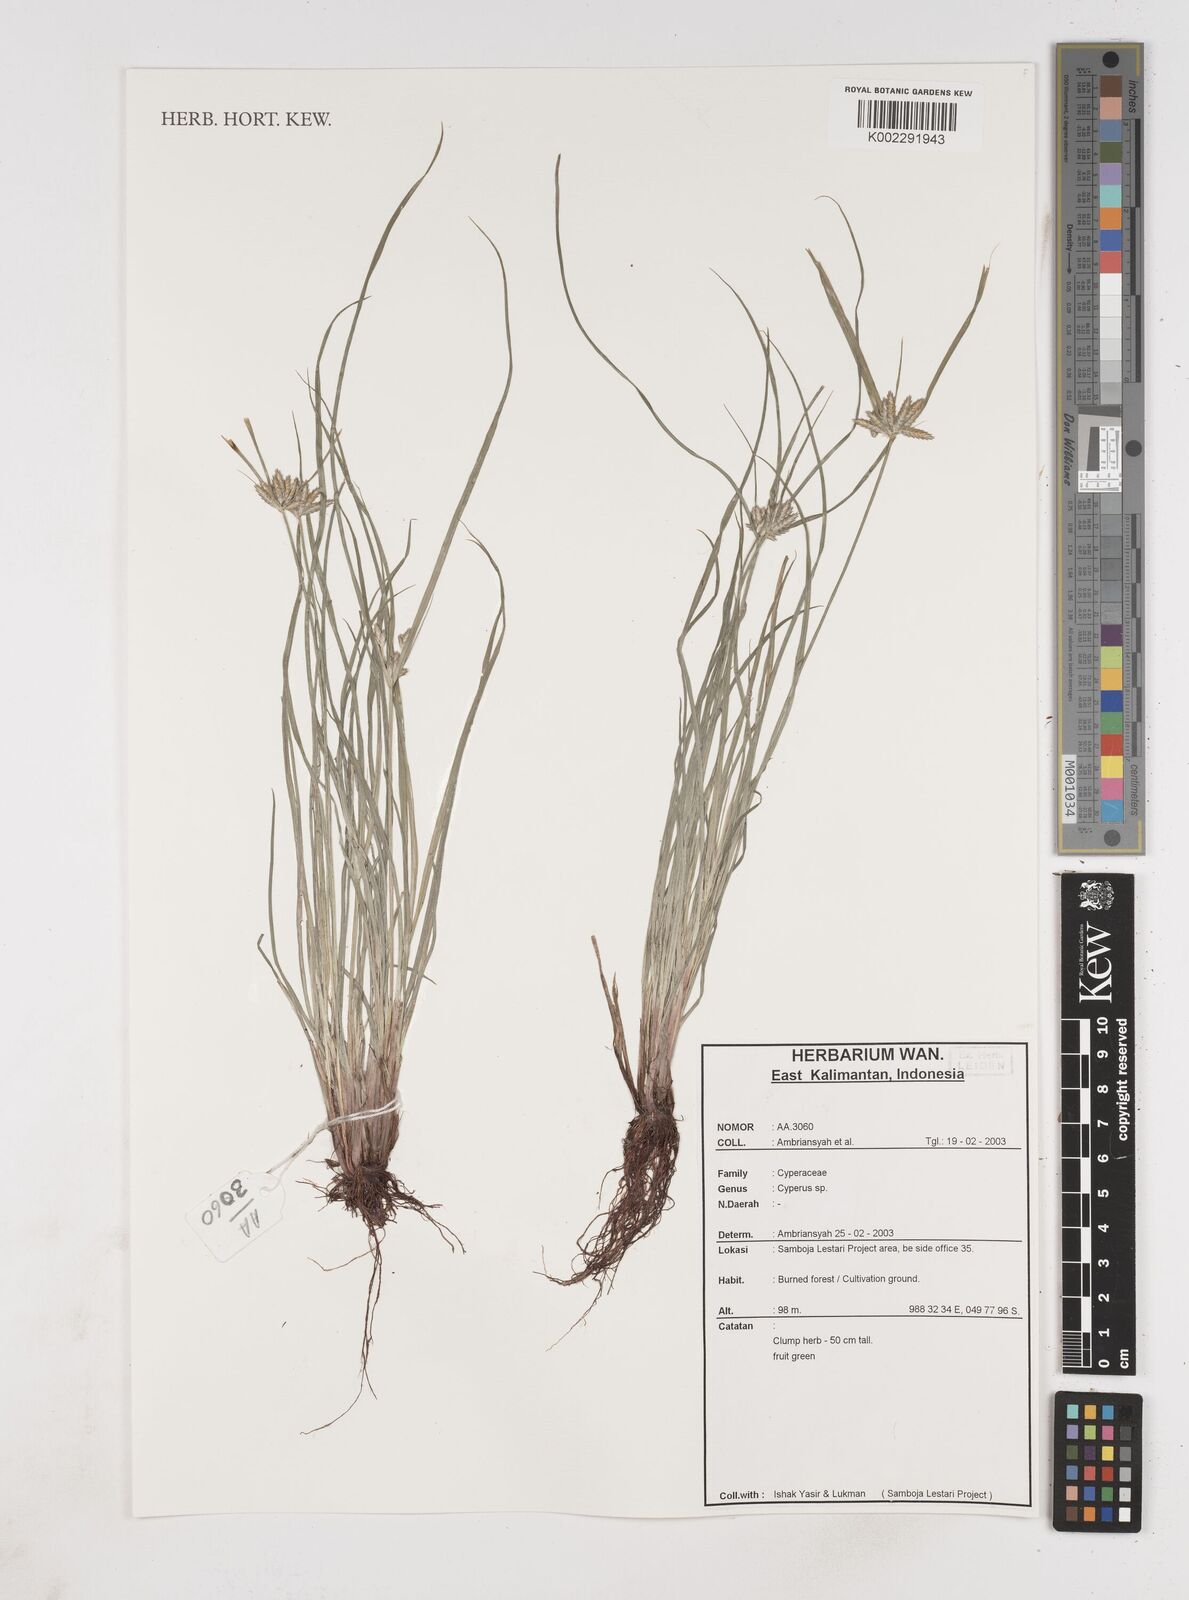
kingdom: Plantae
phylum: Tracheophyta
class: Liliopsida
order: Poales
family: Cyperaceae
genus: Cyperus
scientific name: Cyperus
